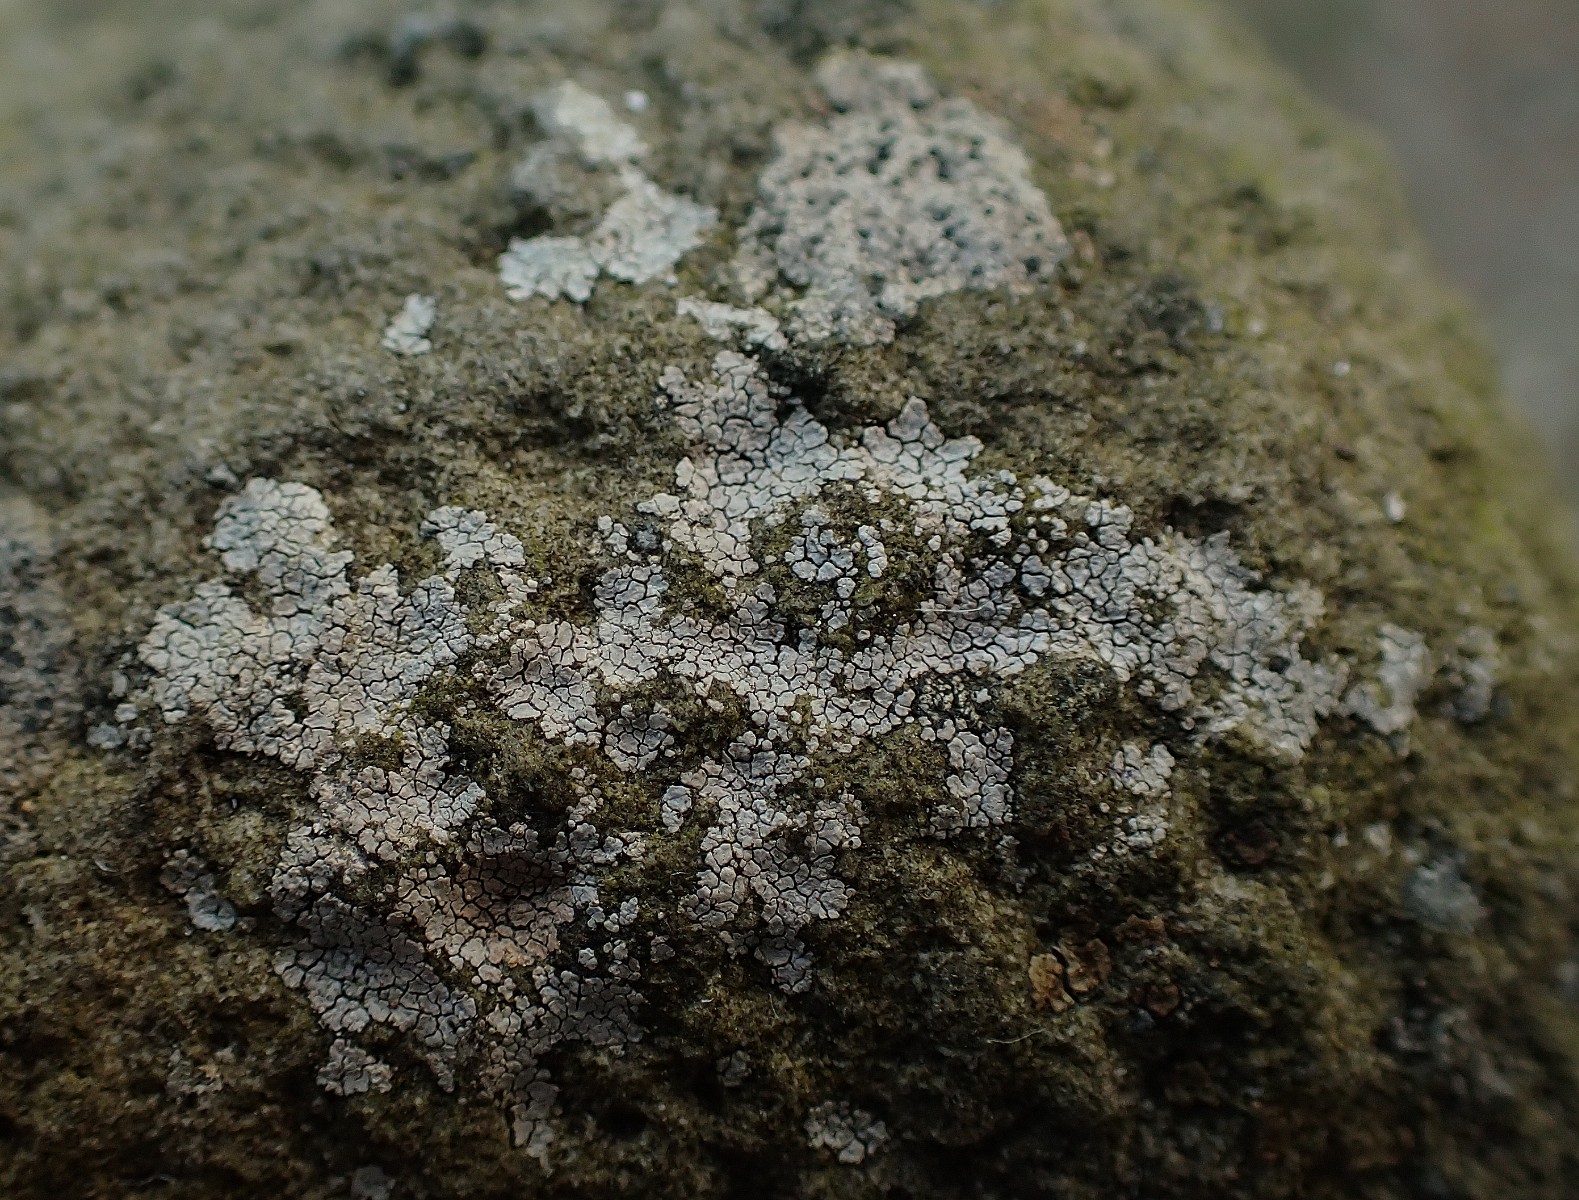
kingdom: Fungi
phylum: Ascomycota
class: Lecanoromycetes
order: Baeomycetales
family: Trapeliaceae
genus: Kleopowiella
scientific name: Kleopowiella placodioides
